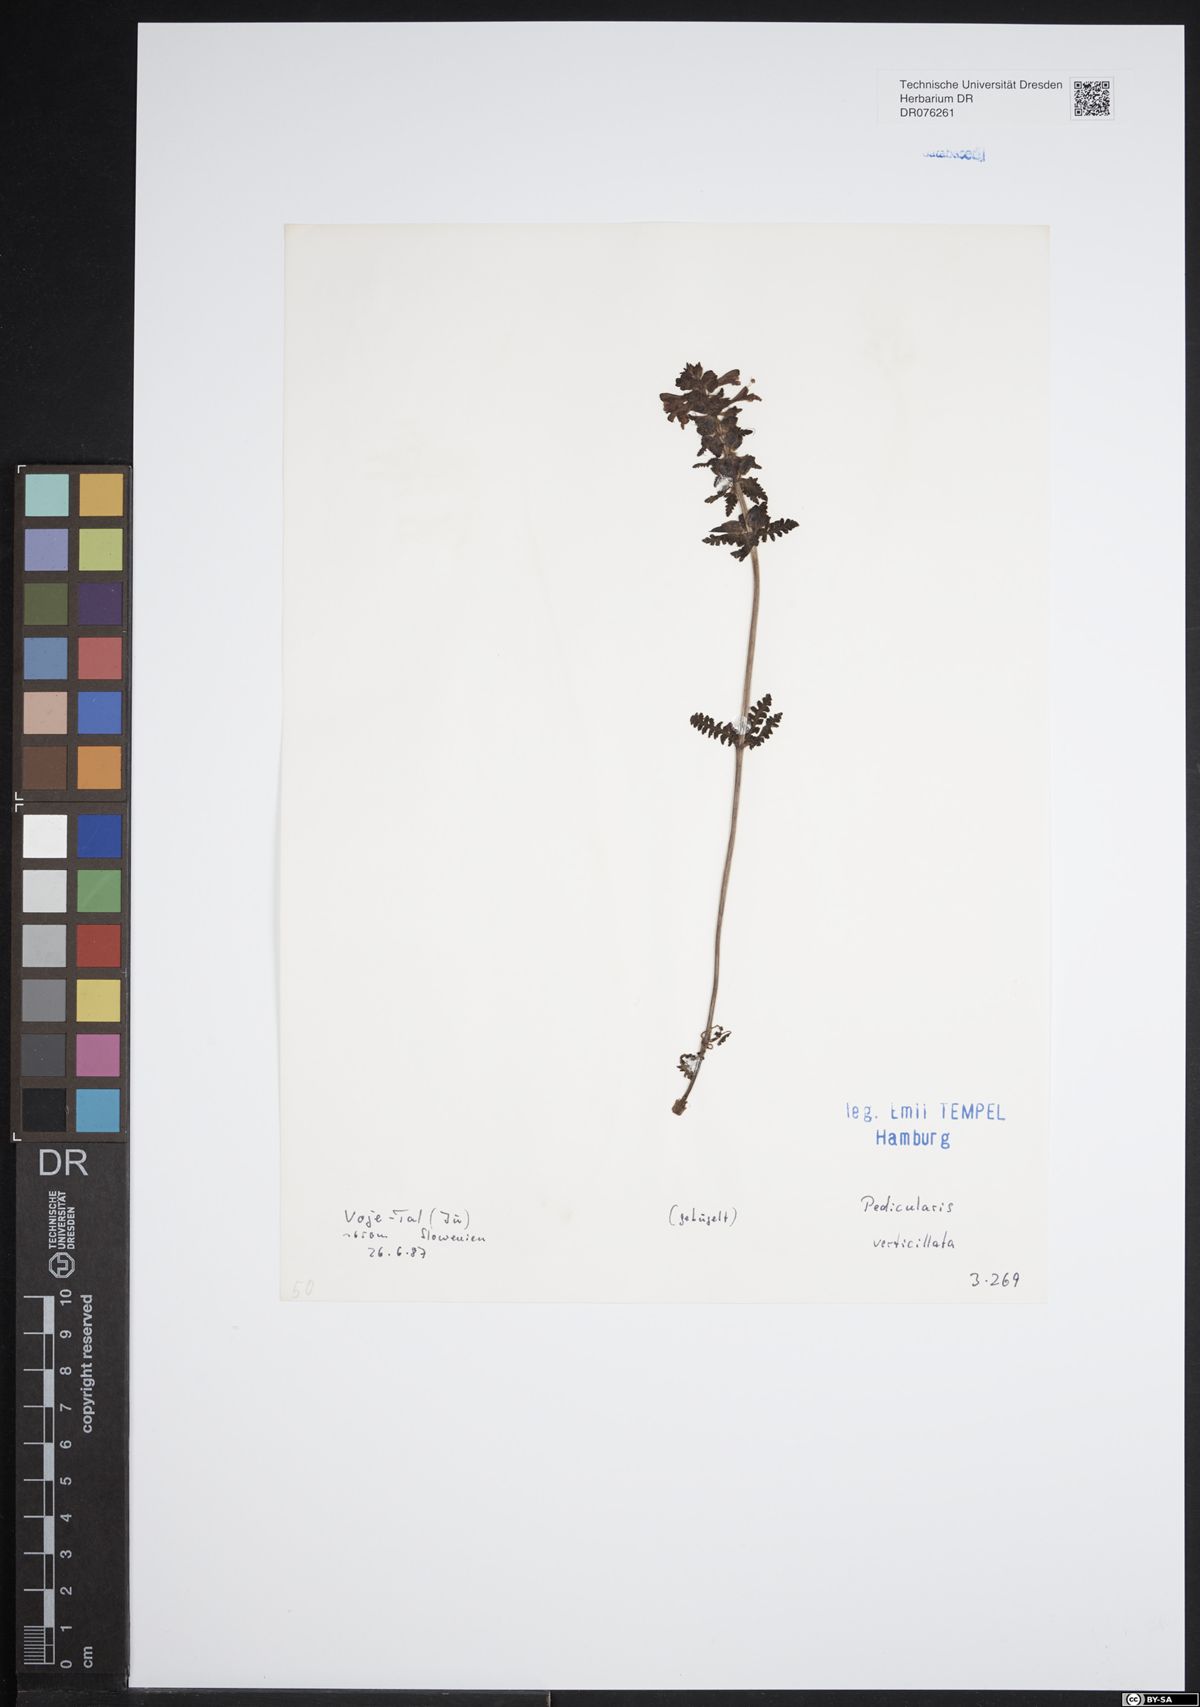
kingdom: Plantae
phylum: Tracheophyta
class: Magnoliopsida
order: Lamiales
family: Orobanchaceae
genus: Pedicularis
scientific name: Pedicularis verticillata
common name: Whorled lousewort
